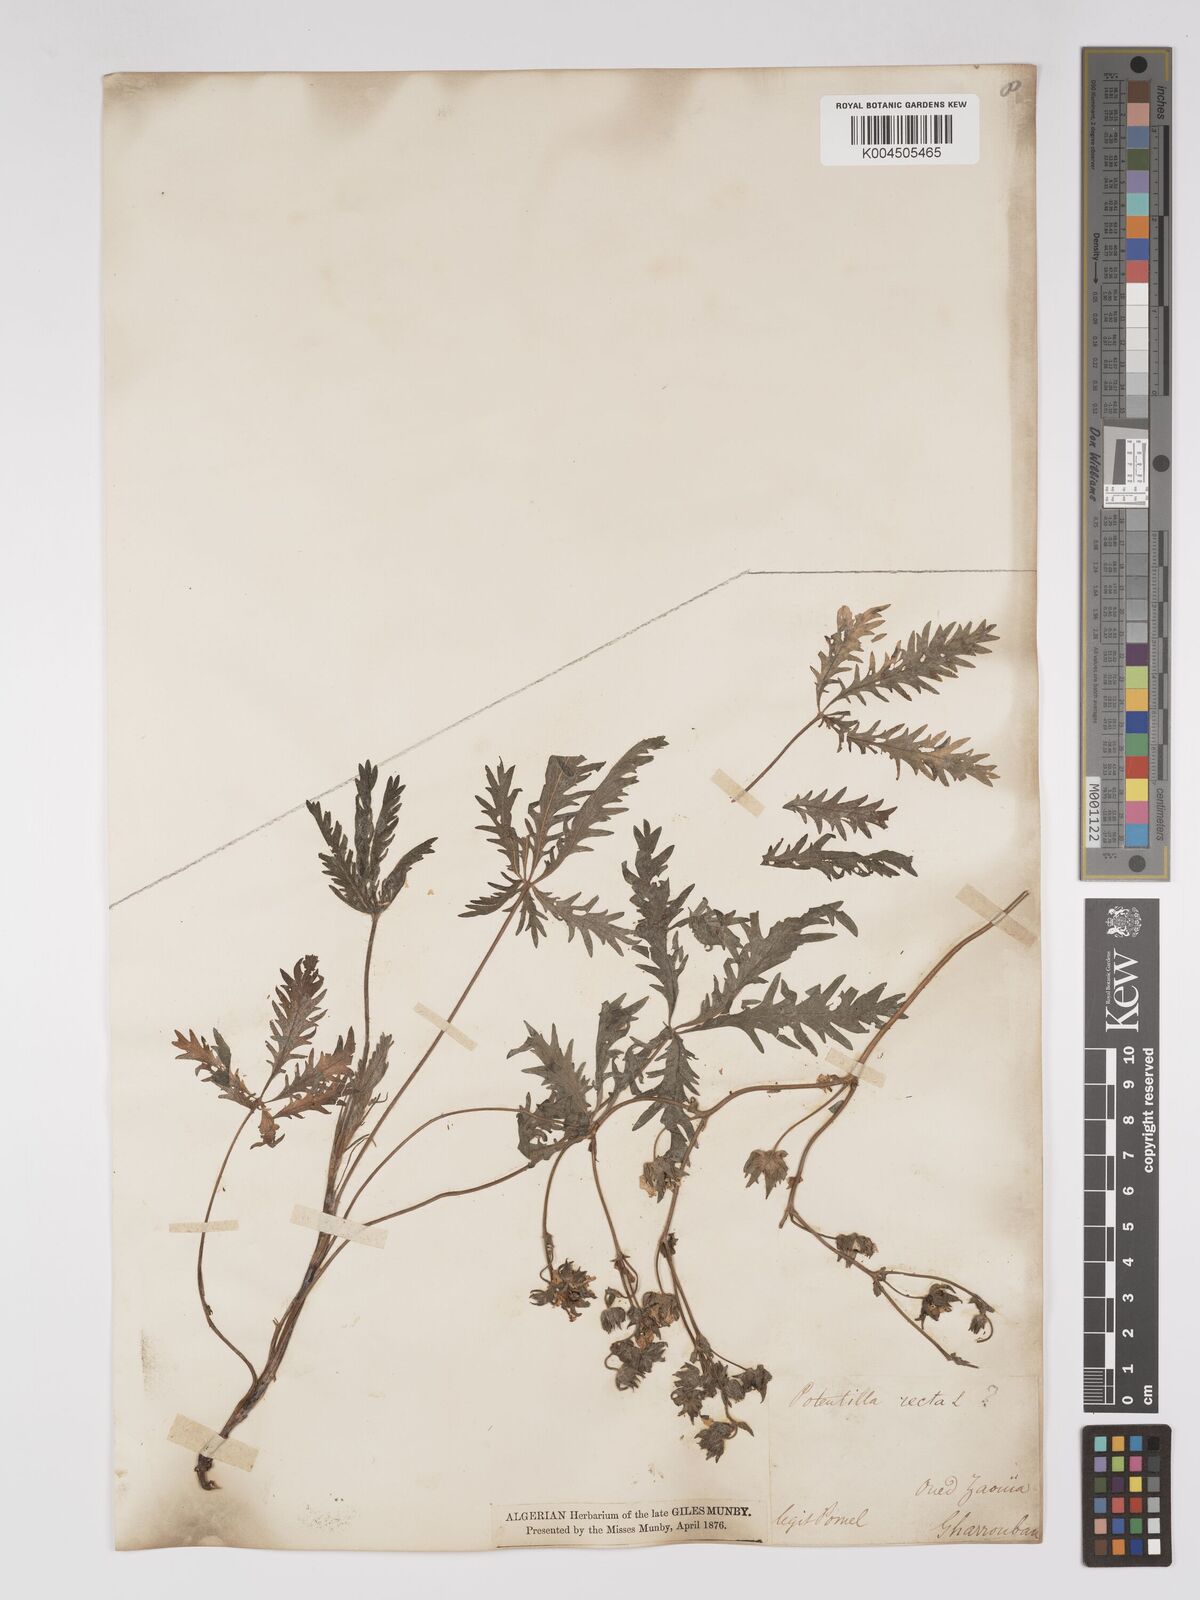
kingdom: Plantae
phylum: Tracheophyta
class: Magnoliopsida
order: Rosales
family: Rosaceae
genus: Potentilla
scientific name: Potentilla hirta
